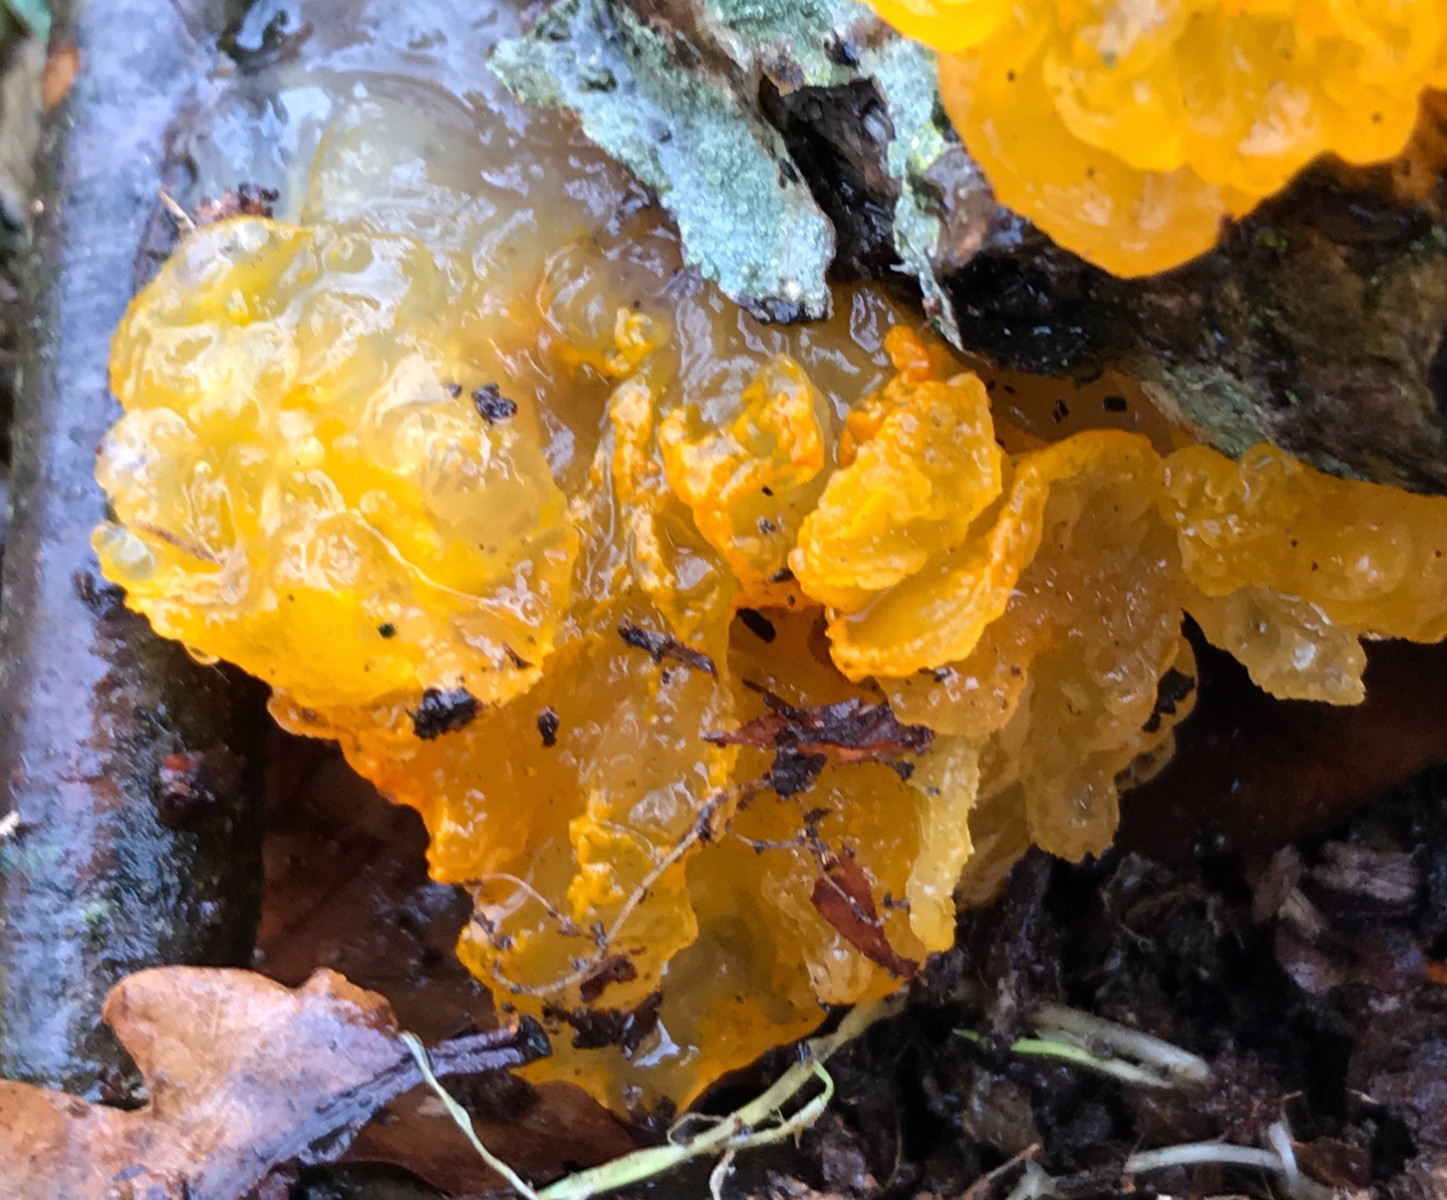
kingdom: Fungi
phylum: Basidiomycota
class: Tremellomycetes
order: Tremellales
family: Tremellaceae
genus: Tremella
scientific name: Tremella mesenterica
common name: gul bævresvamp
